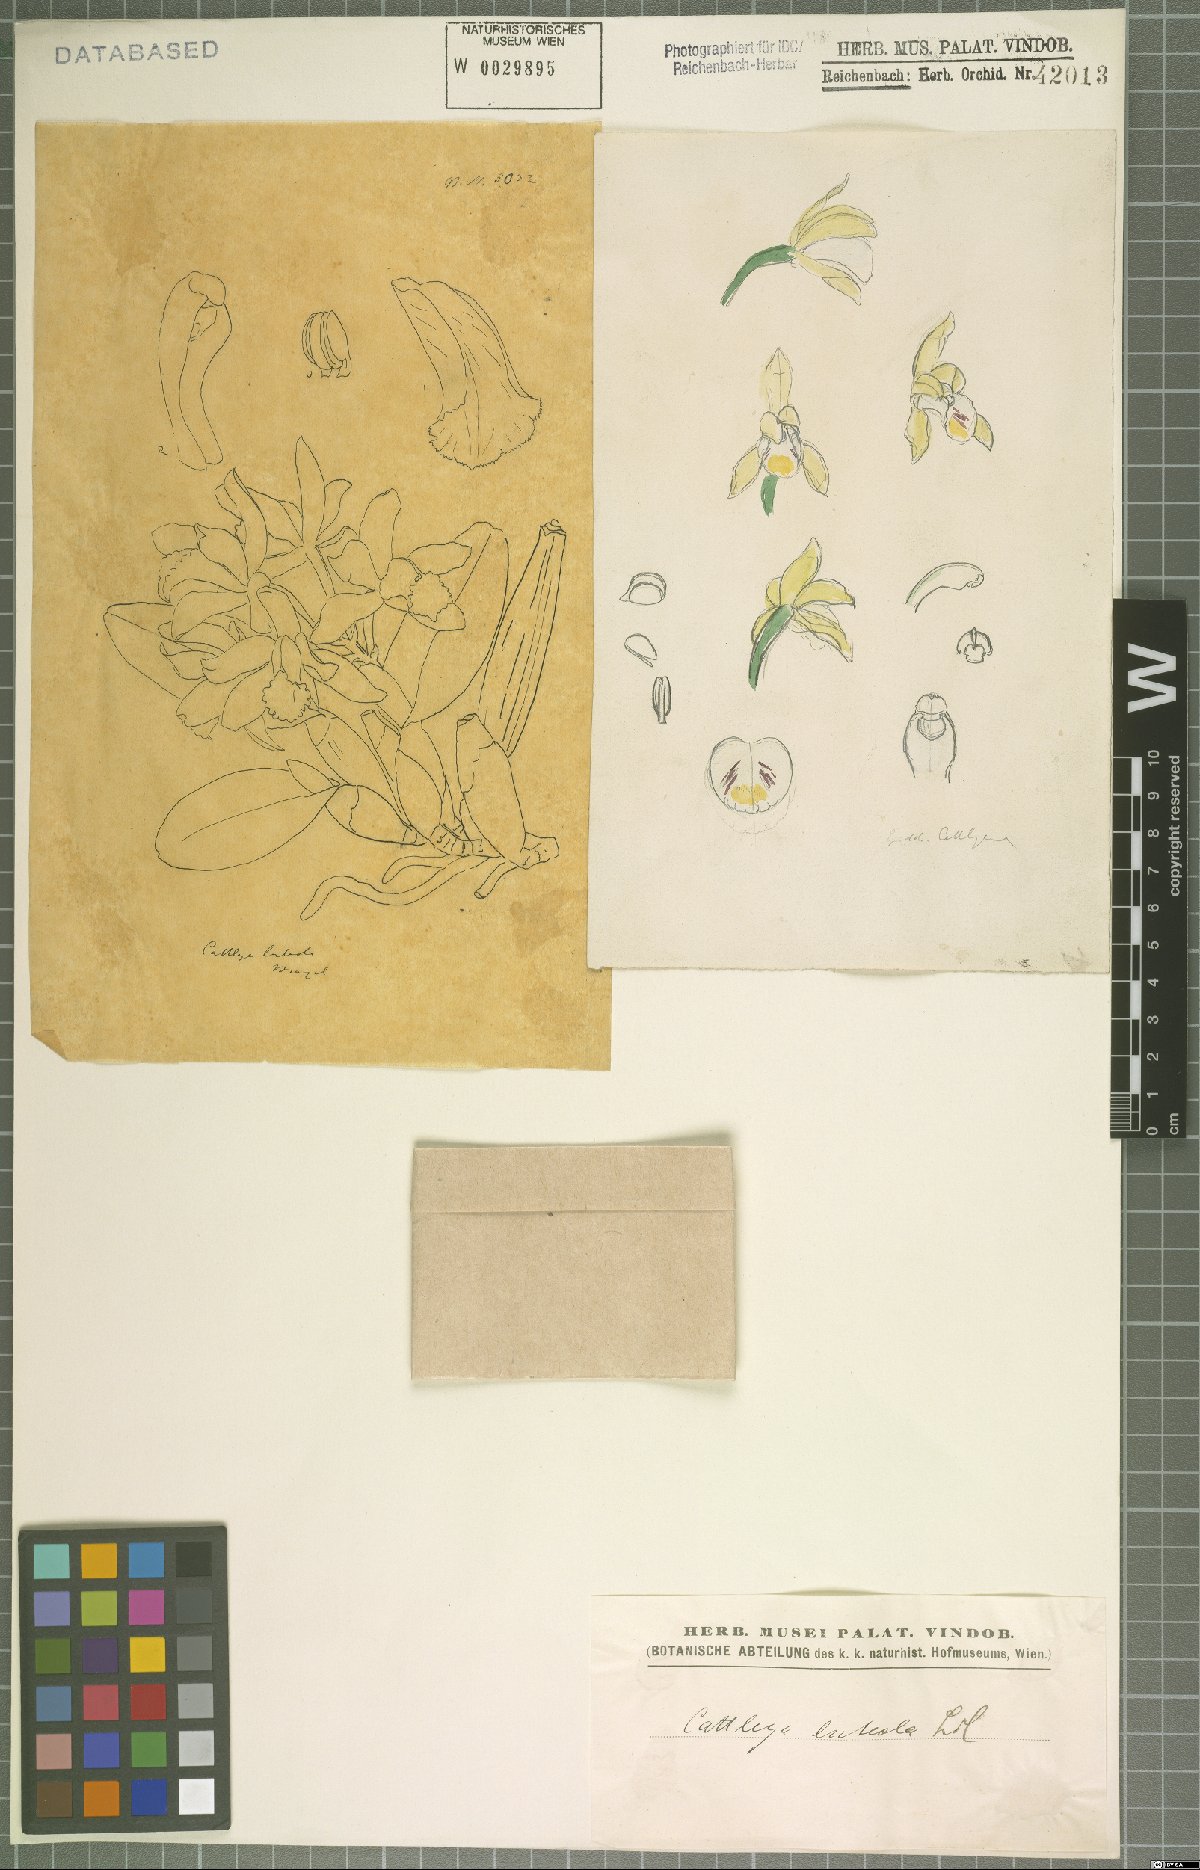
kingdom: Plantae
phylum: Tracheophyta
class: Liliopsida
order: Asparagales
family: Orchidaceae
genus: Cattleya
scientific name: Cattleya luteola
